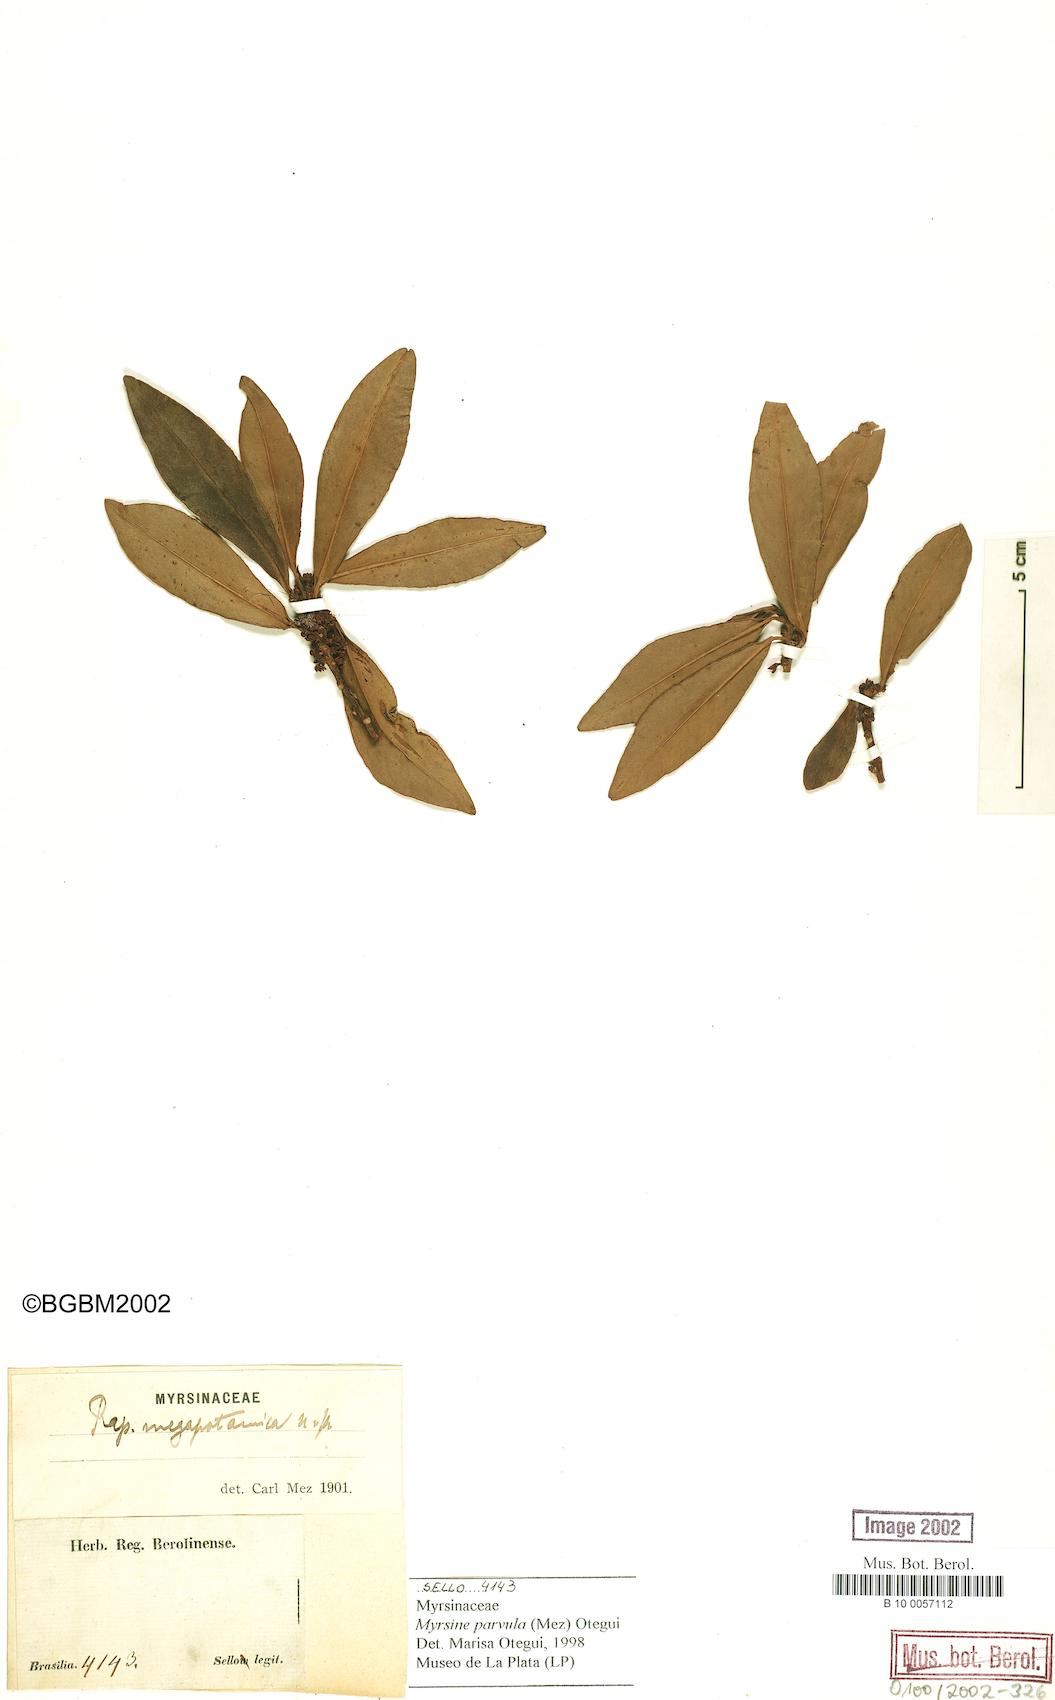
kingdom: Plantae
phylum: Tracheophyta
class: Magnoliopsida
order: Ericales
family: Primulaceae
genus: Myrsine
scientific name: Myrsine lorentziana
